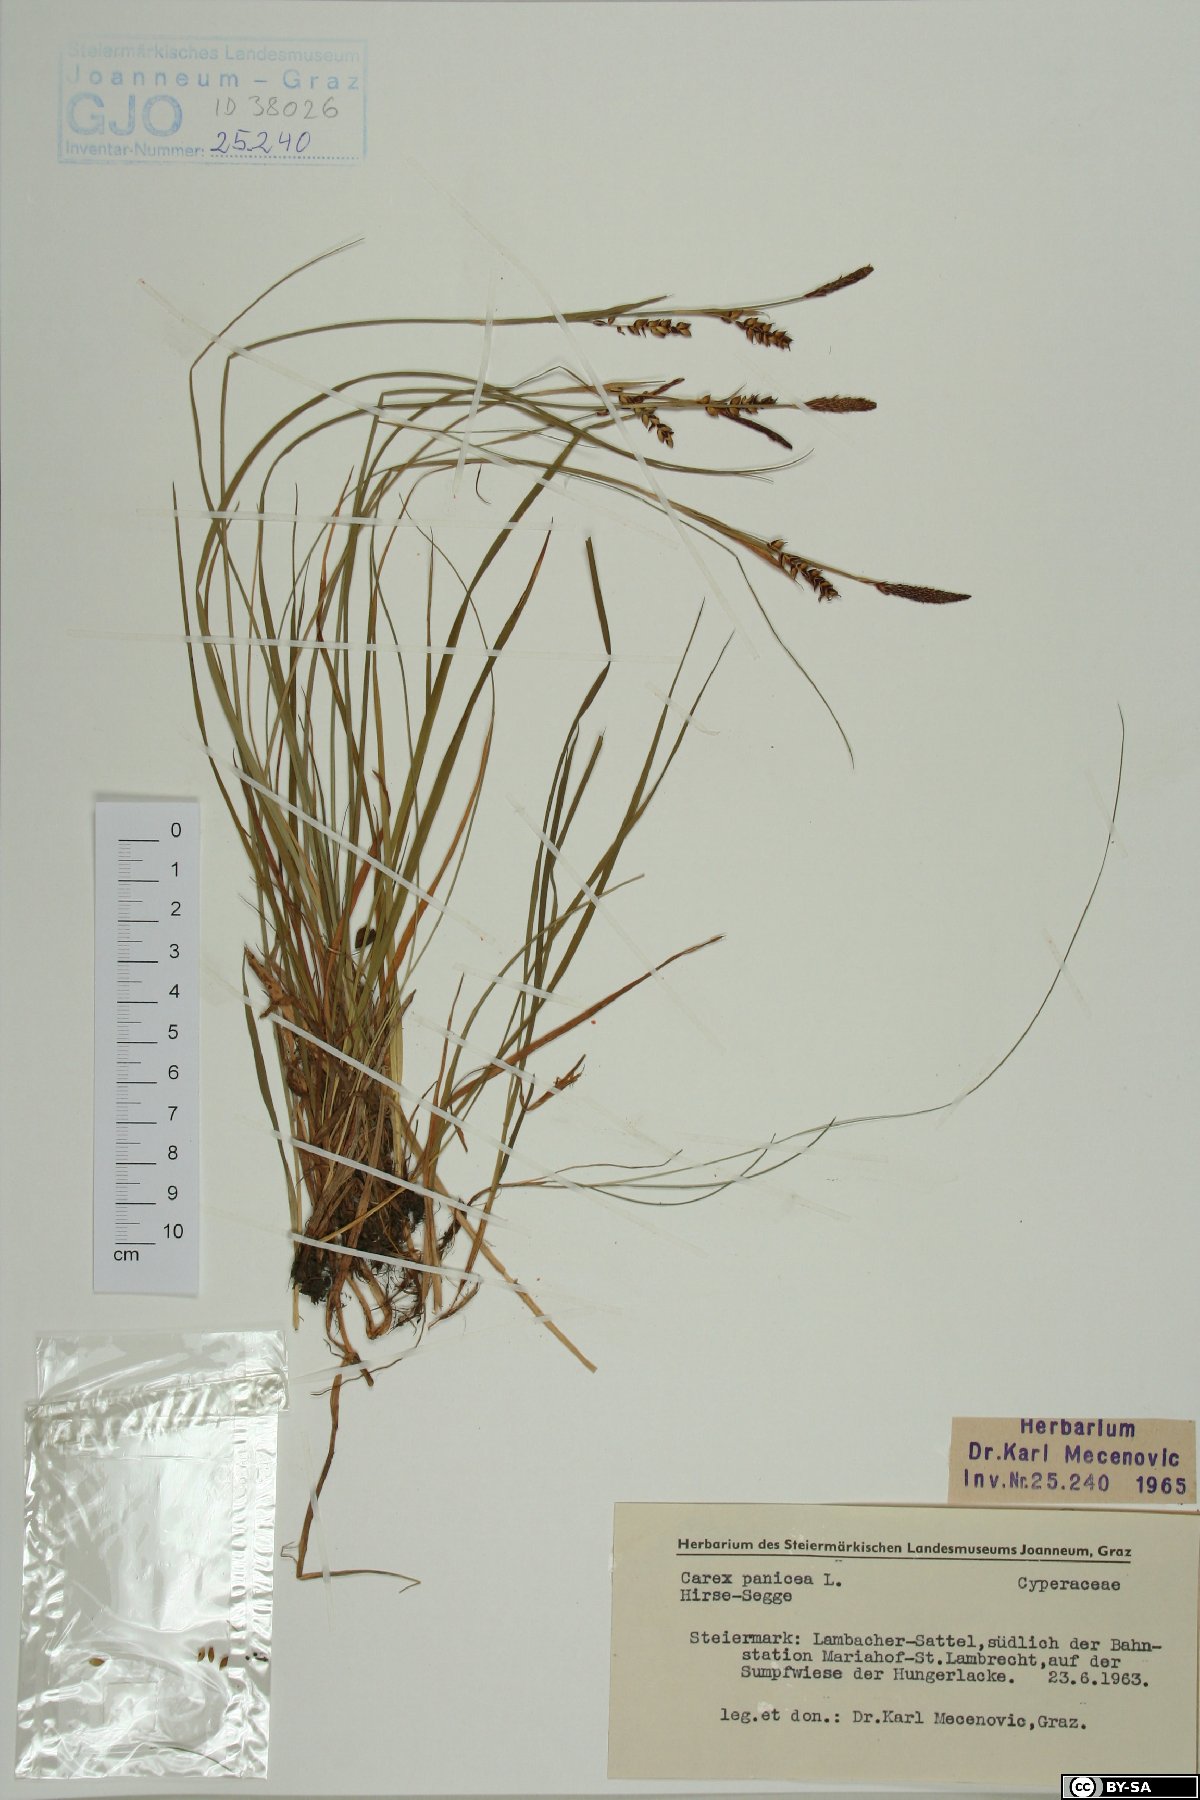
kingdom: Plantae
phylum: Tracheophyta
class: Liliopsida
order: Poales
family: Cyperaceae
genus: Carex
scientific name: Carex panicea
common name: Carnation sedge
